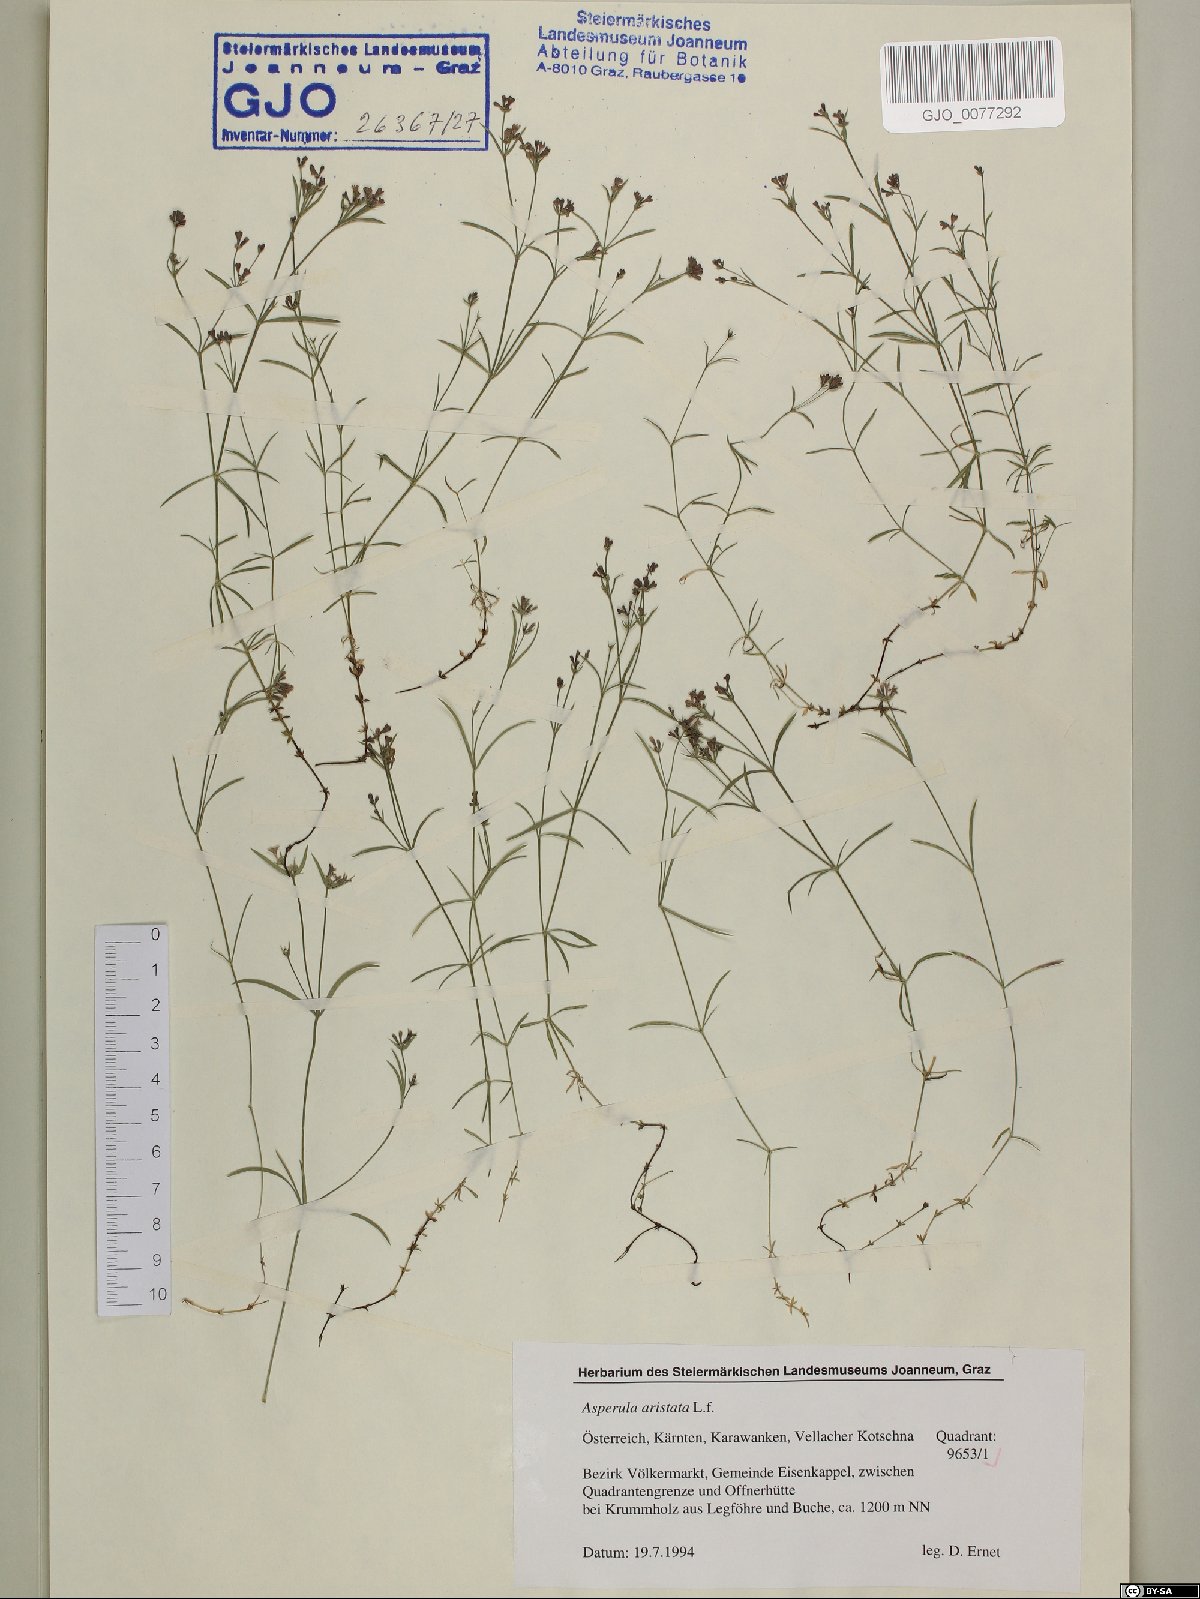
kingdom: Plantae
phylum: Tracheophyta
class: Magnoliopsida
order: Gentianales
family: Rubiaceae
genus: Cynanchica
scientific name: Cynanchica aristata
